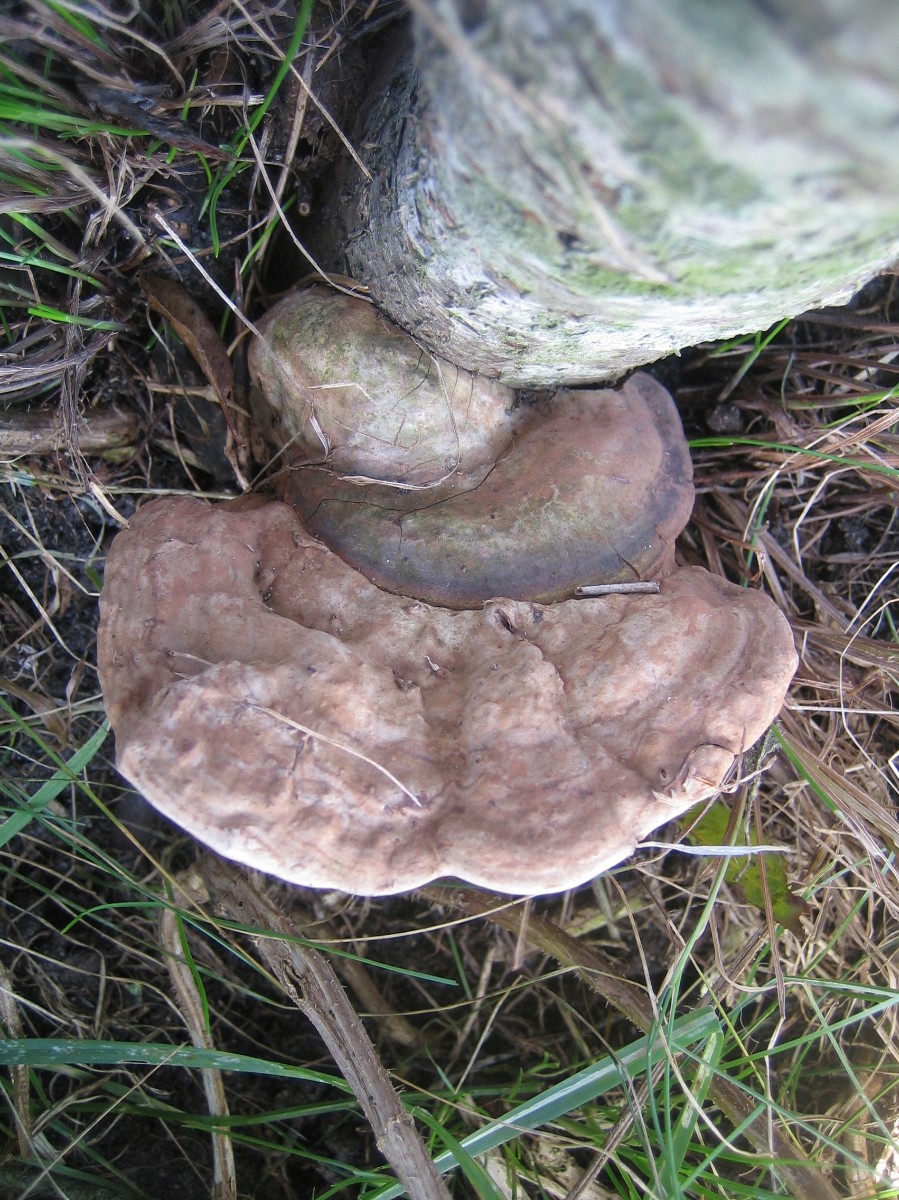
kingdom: Fungi
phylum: Basidiomycota
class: Agaricomycetes
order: Polyporales
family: Polyporaceae
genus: Ganoderma
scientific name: Ganoderma applanatum
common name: flad lakporesvamp
